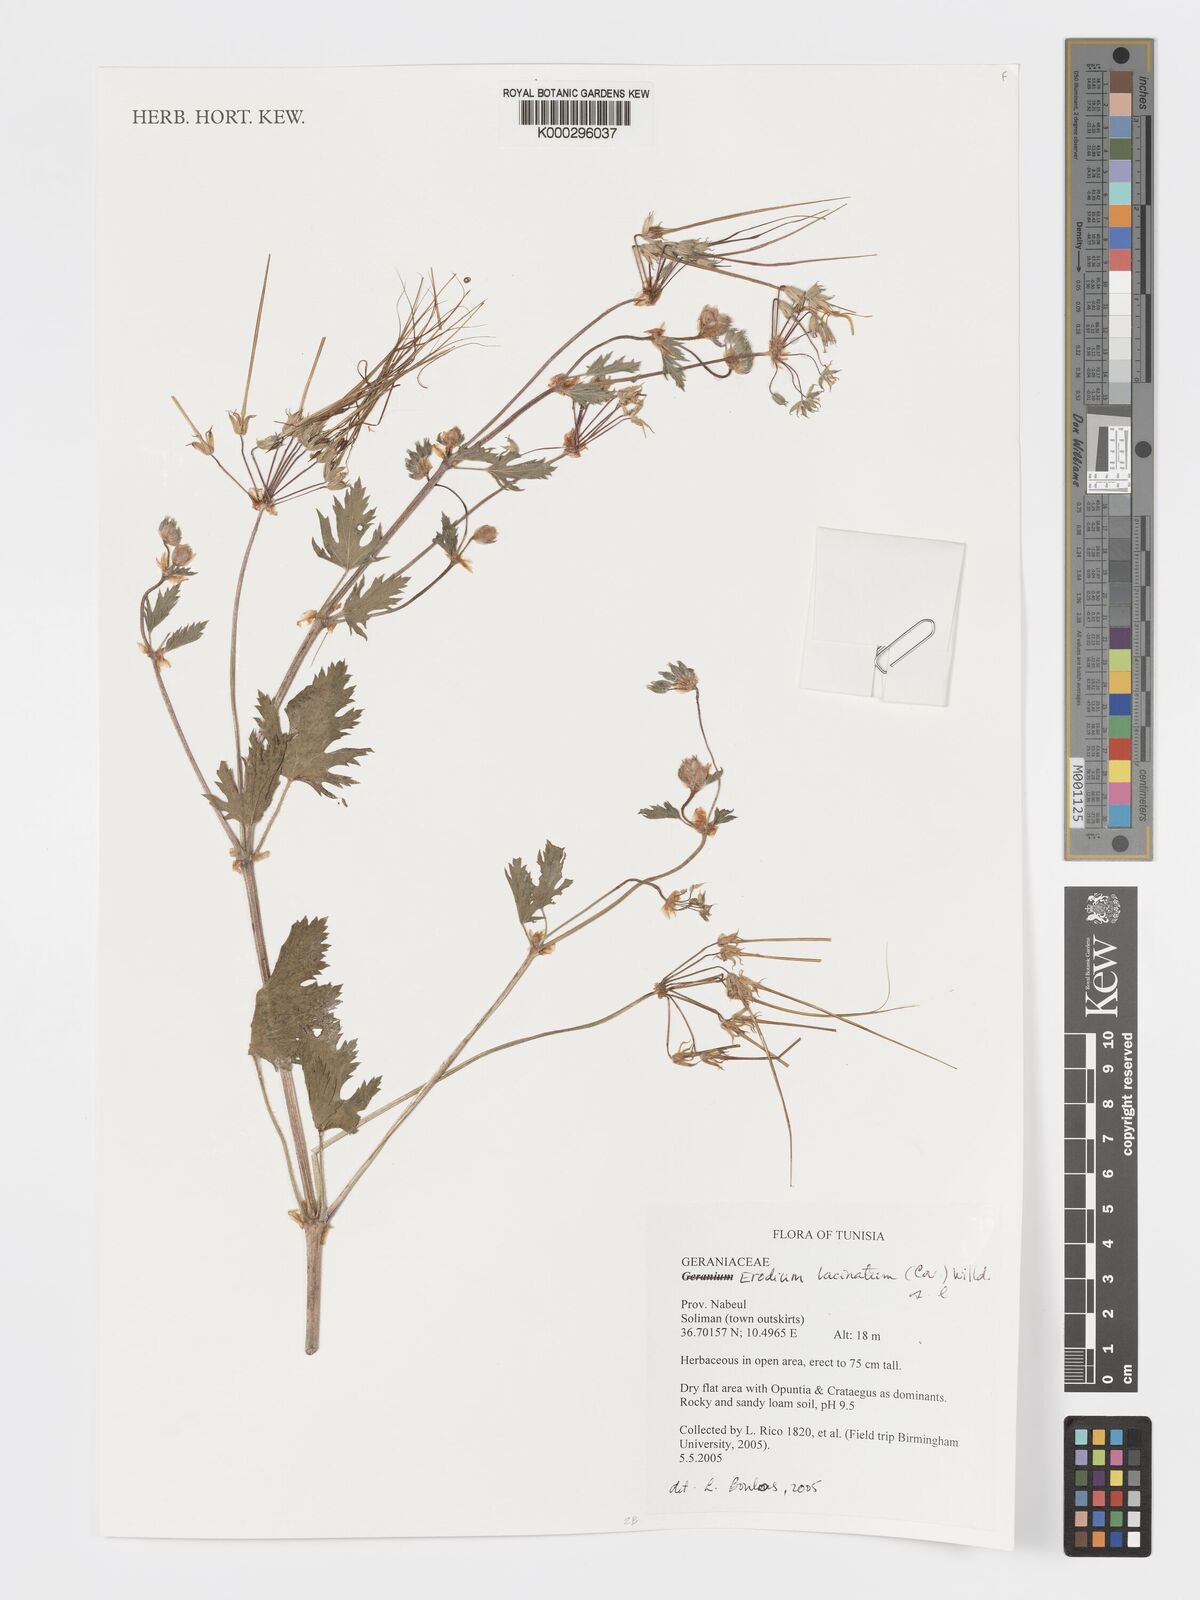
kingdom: Plantae
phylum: Tracheophyta
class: Magnoliopsida
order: Geraniales
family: Geraniaceae
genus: Erodium
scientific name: Erodium laciniatum
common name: Cutleaf stork's bill
